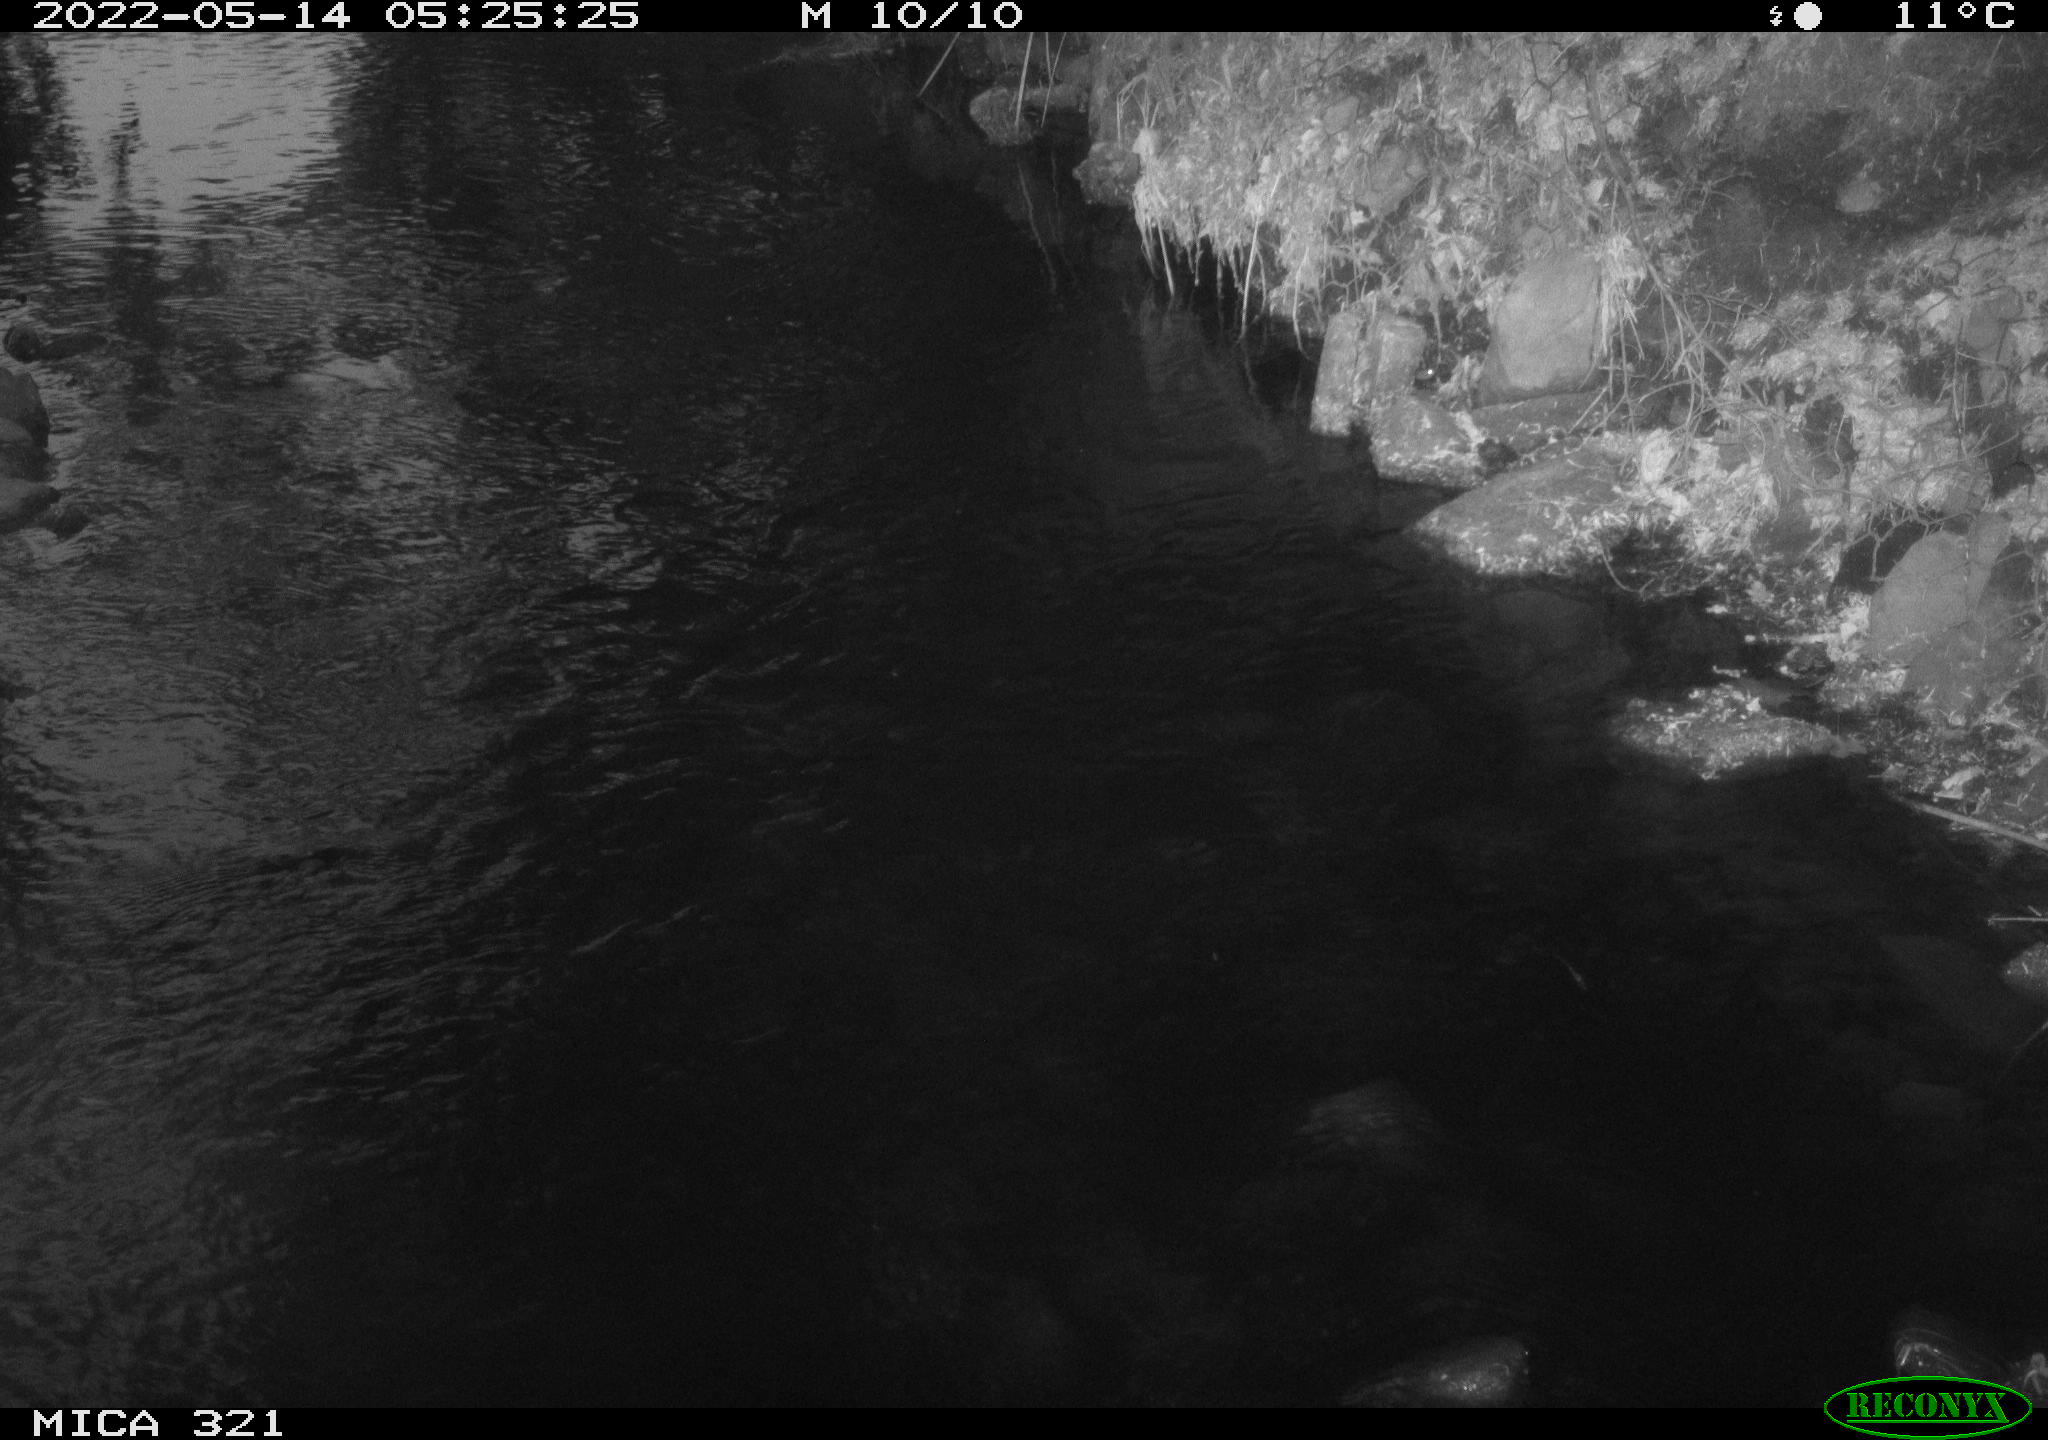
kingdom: Animalia
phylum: Chordata
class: Aves
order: Anseriformes
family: Anatidae
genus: Anas
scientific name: Anas platyrhynchos
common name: Mallard
